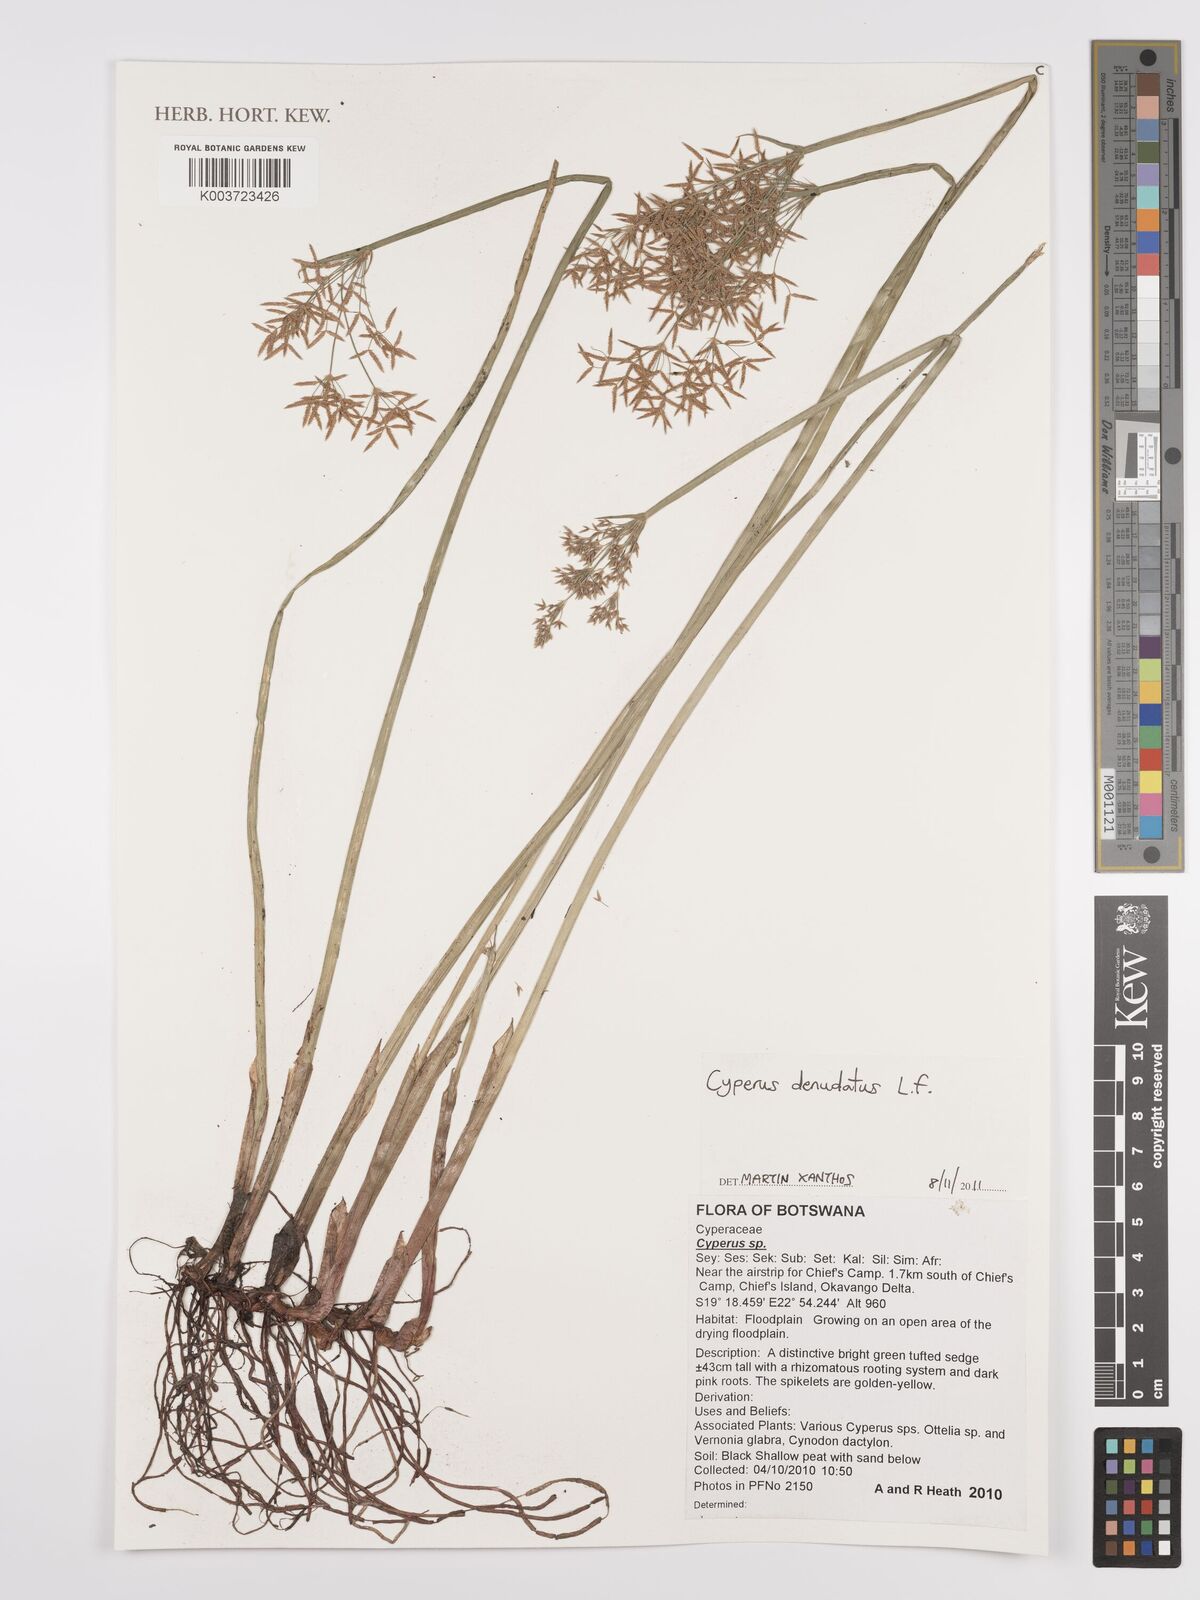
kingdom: Plantae
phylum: Tracheophyta
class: Liliopsida
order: Poales
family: Cyperaceae
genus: Cyperus
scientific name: Cyperus denudatus
